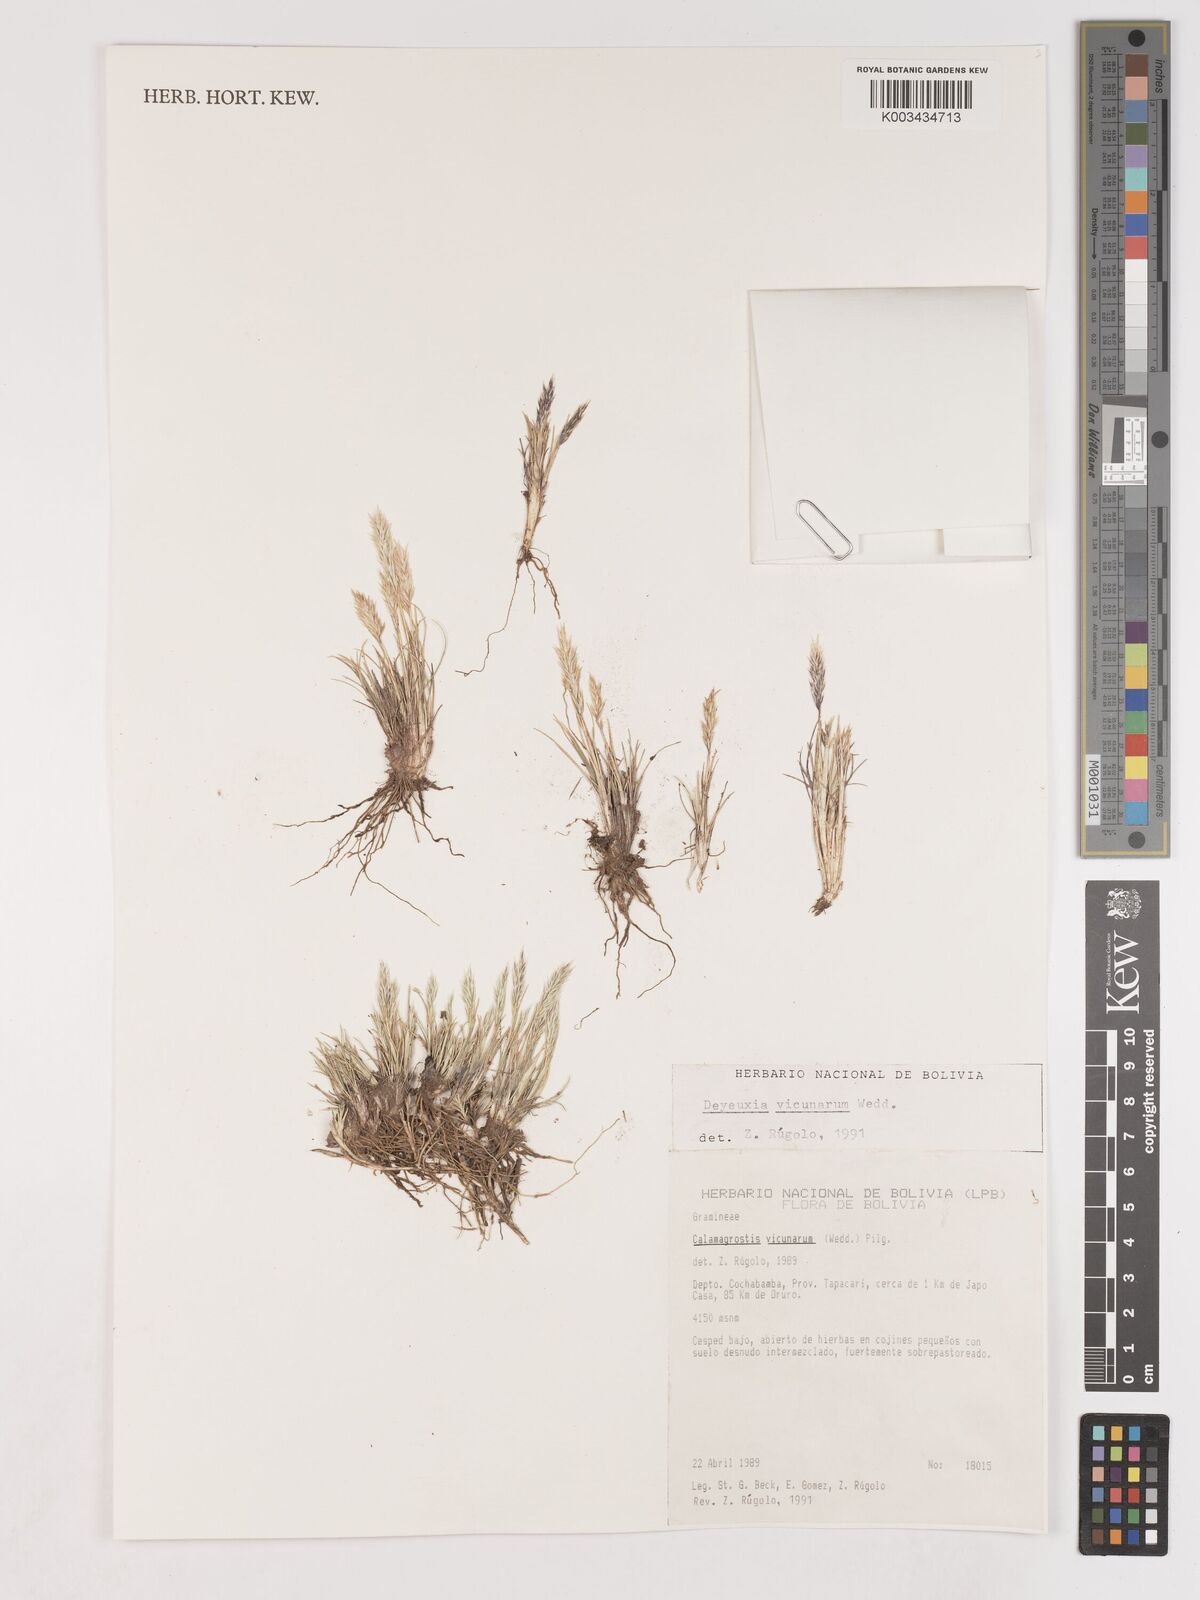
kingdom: Plantae
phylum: Tracheophyta
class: Liliopsida
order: Poales
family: Poaceae
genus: Cinnagrostis
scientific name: Cinnagrostis vicunarum
